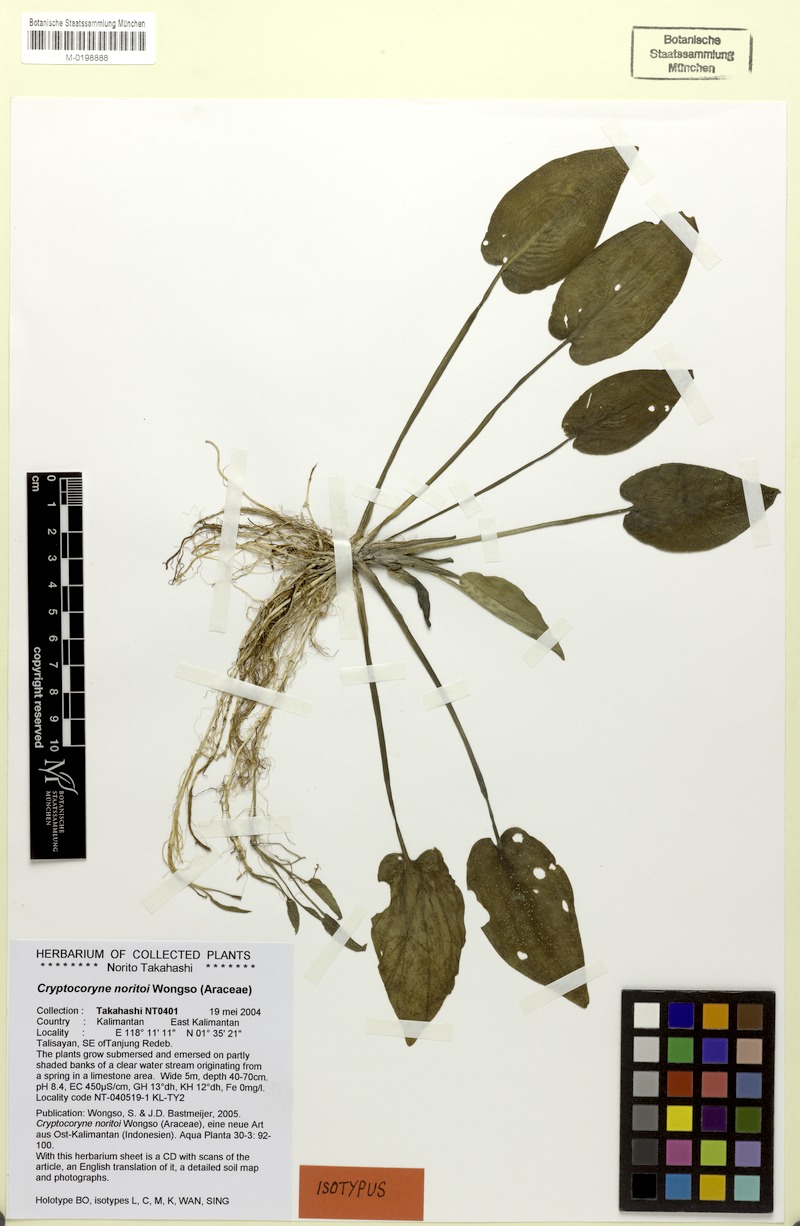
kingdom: Plantae
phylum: Tracheophyta
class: Liliopsida
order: Alismatales
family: Araceae
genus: Cryptocoryne
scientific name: Cryptocoryne noritoi
